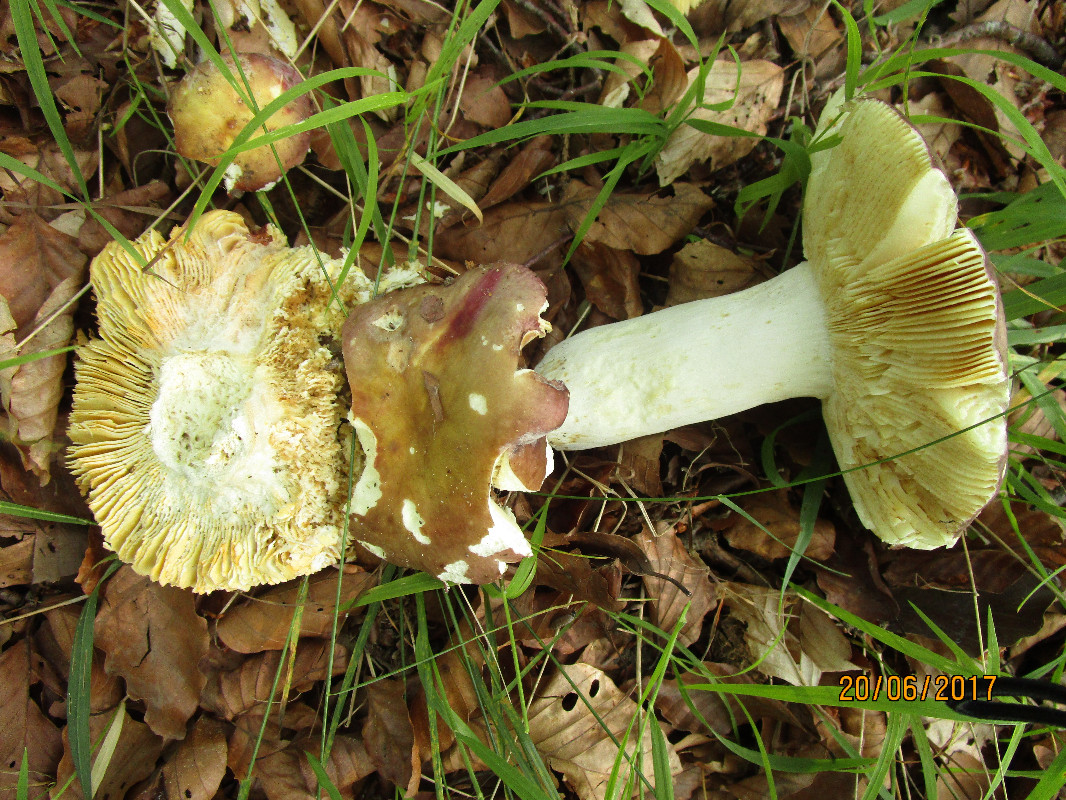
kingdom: Fungi
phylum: Basidiomycota
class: Agaricomycetes
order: Russulales
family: Russulaceae
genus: Russula
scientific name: Russula romellii
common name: romells skørhat
